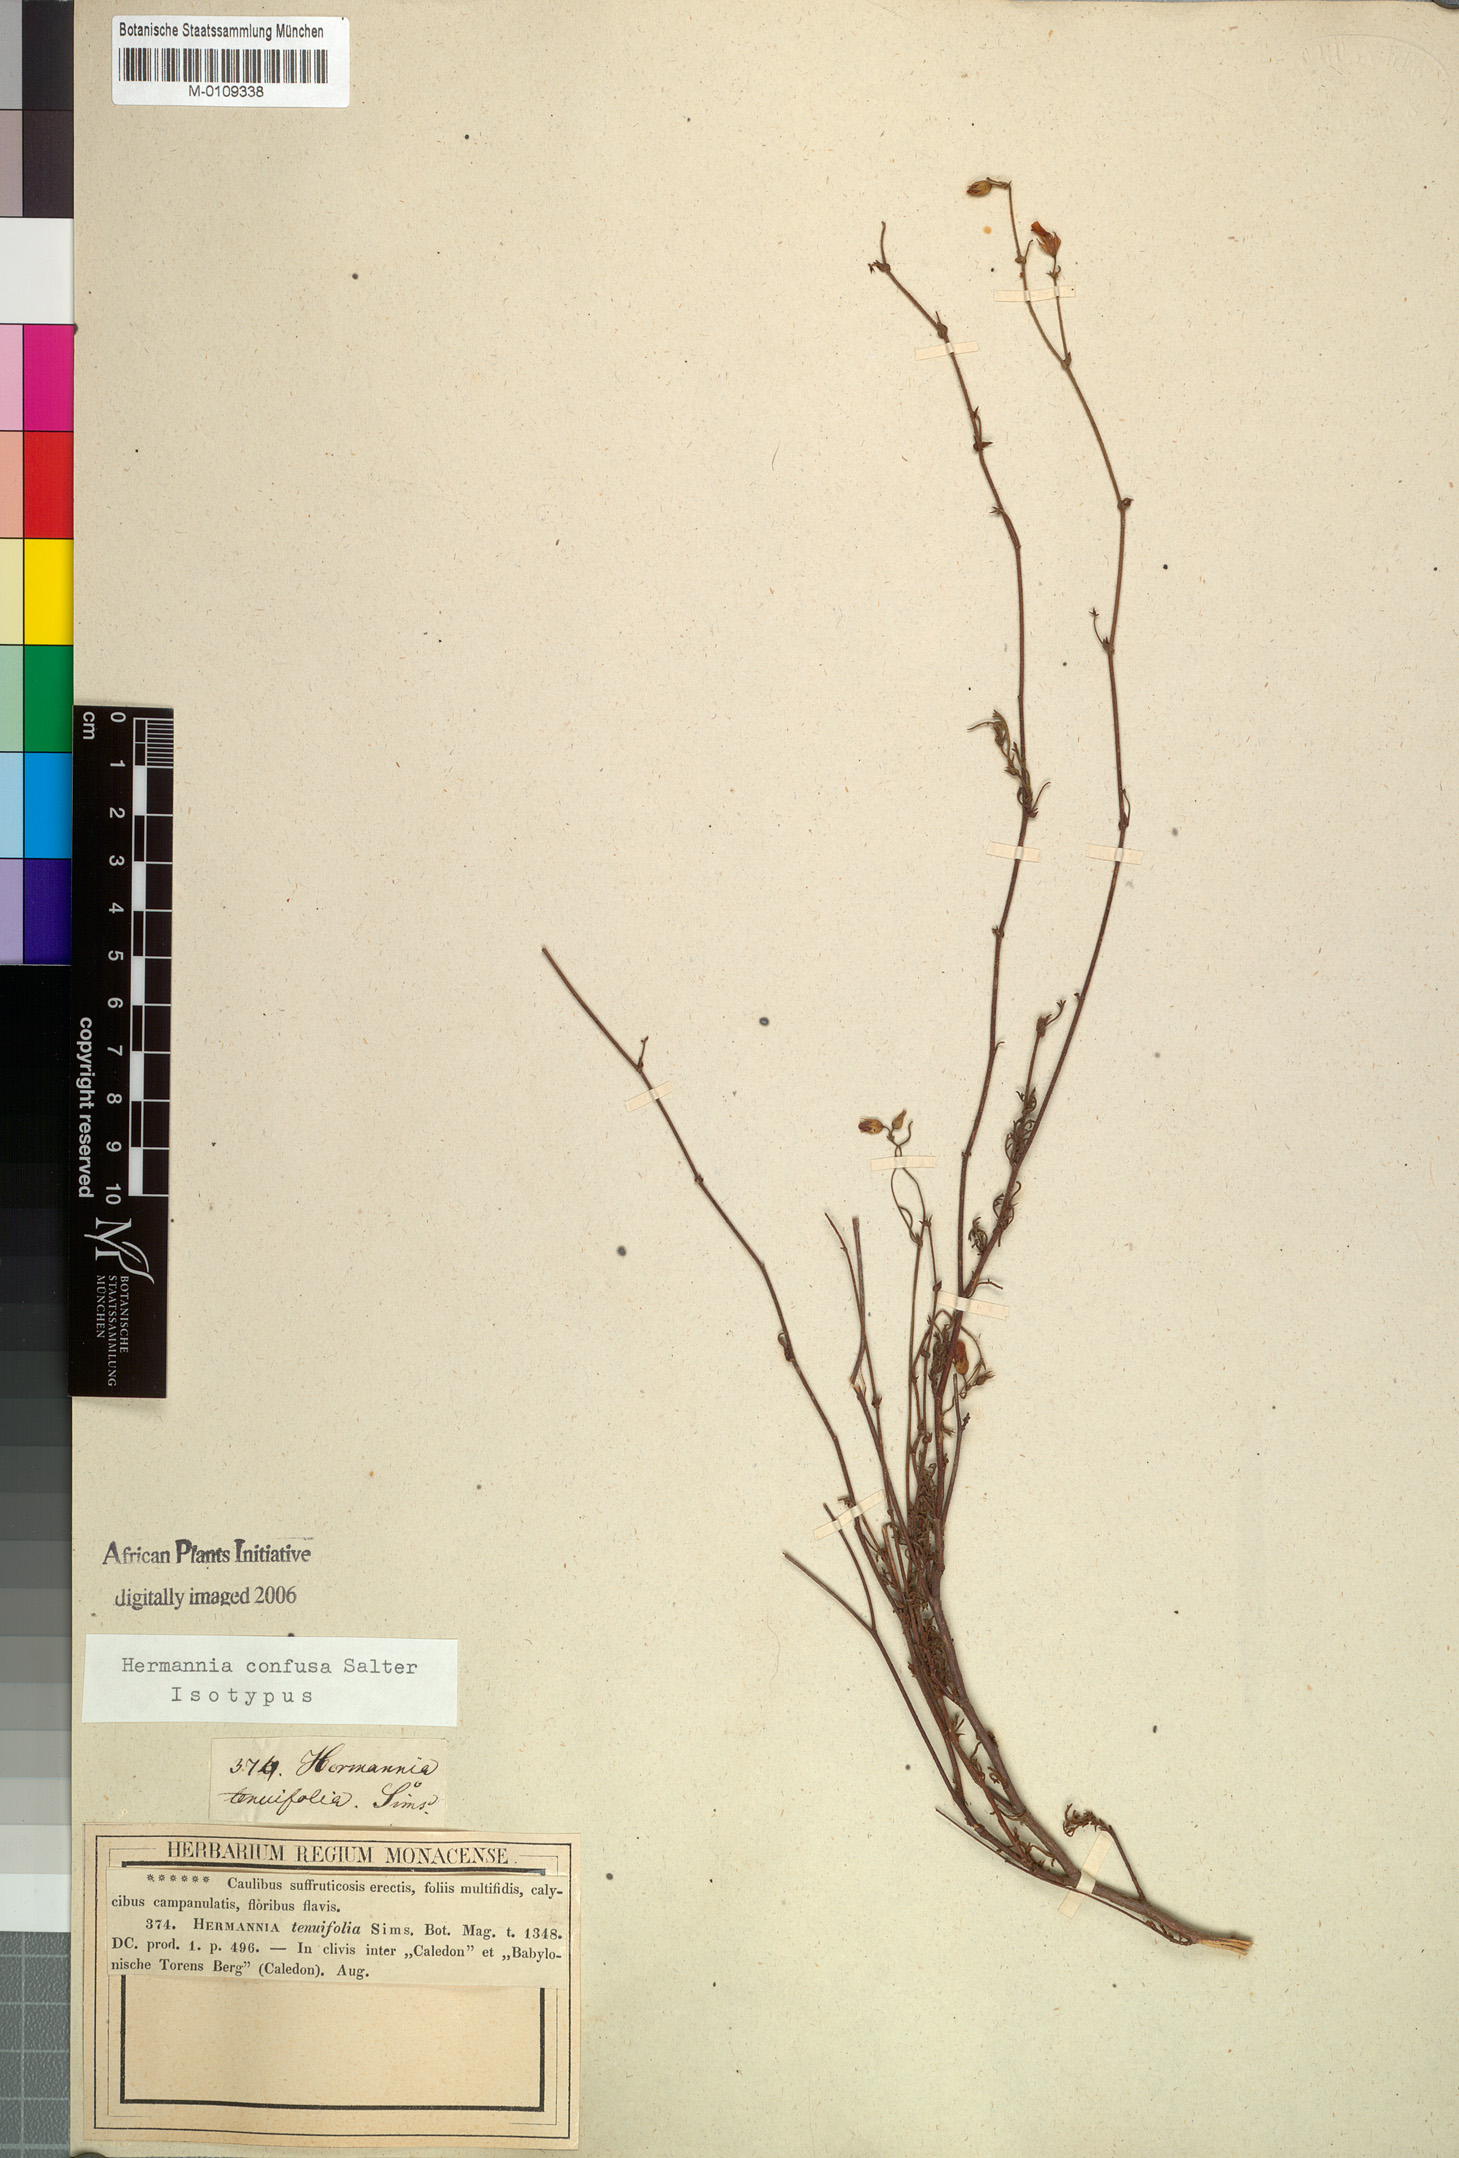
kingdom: Plantae
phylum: Tracheophyta
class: Magnoliopsida
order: Malvales
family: Malvaceae
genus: Hermannia
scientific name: Hermannia confusa
